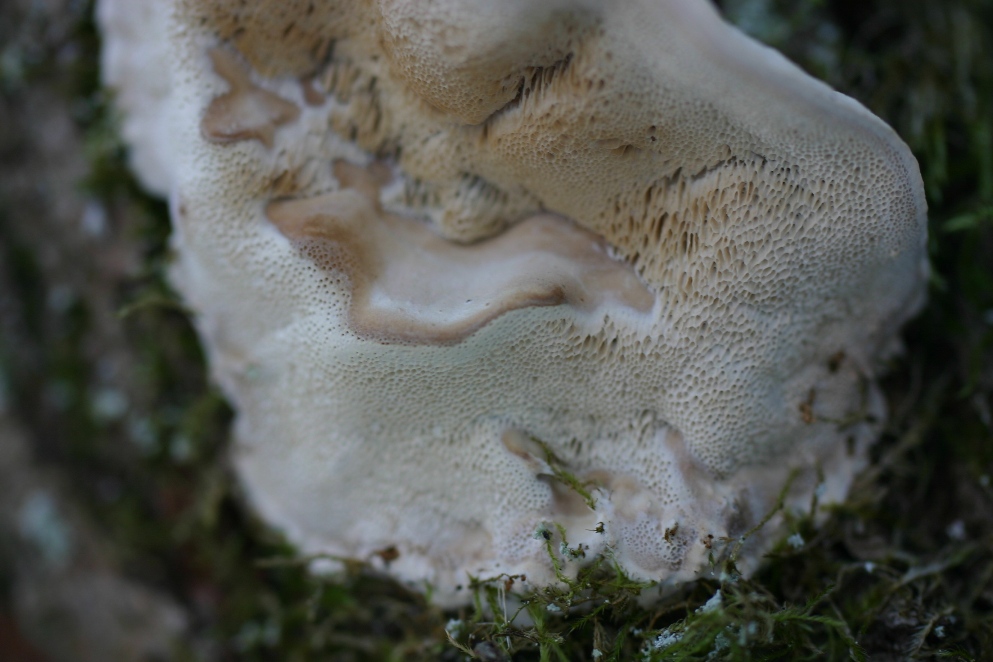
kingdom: Fungi
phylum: Basidiomycota
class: Agaricomycetes
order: Polyporales
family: Phanerochaetaceae
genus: Bjerkandera
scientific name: Bjerkandera fumosa
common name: grågul sodporesvamp
